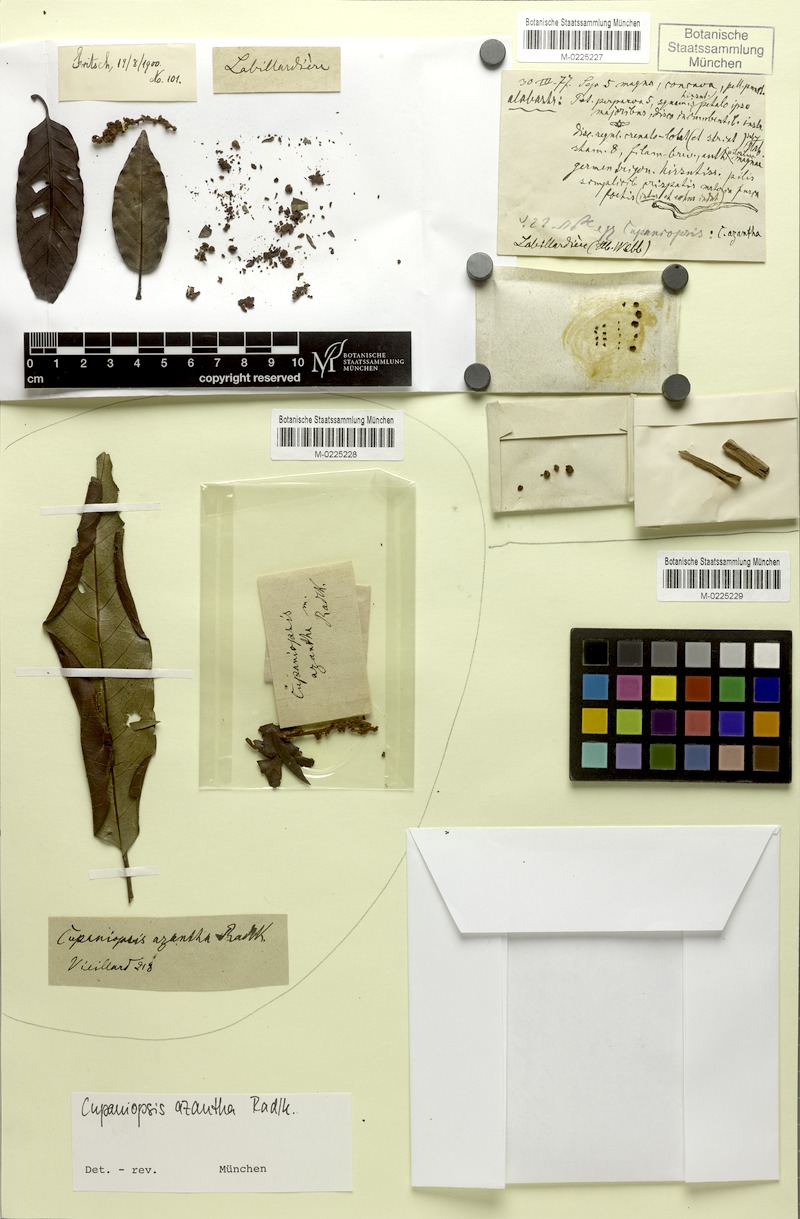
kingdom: Plantae
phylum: Tracheophyta
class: Magnoliopsida
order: Sapindales
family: Sapindaceae
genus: Cupaniopsis
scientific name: Cupaniopsis azantha
